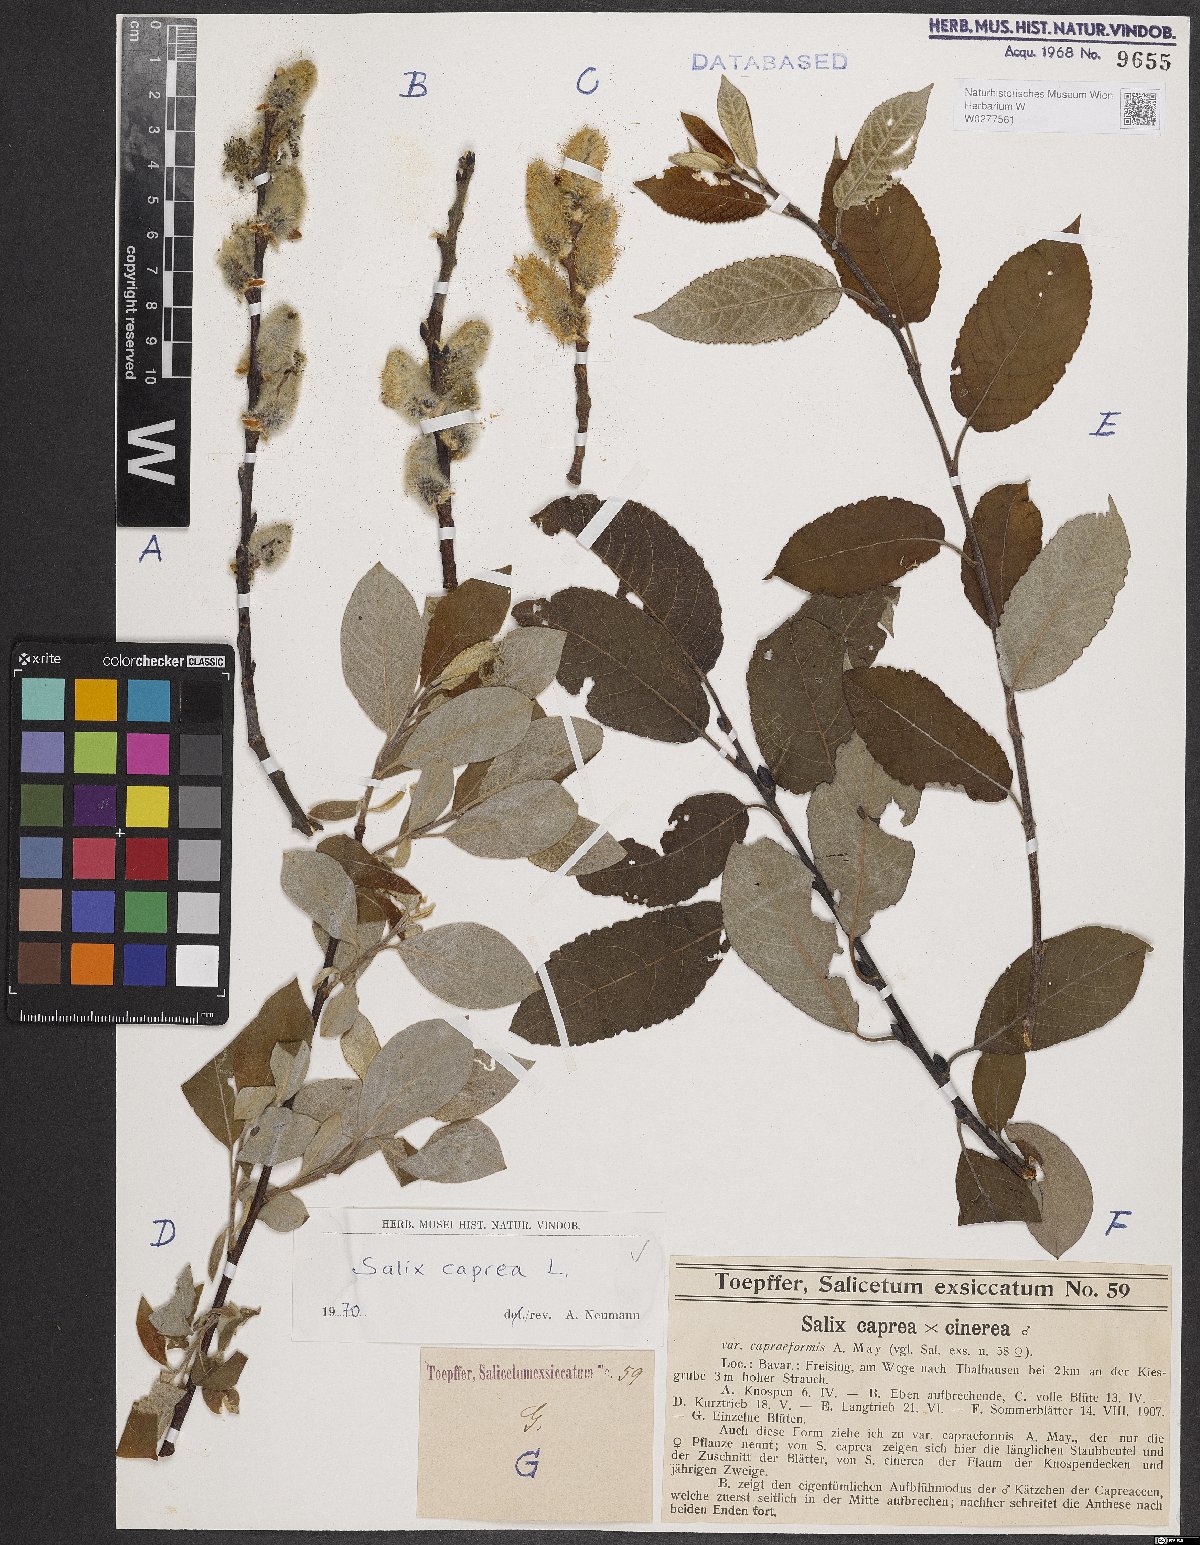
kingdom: Plantae
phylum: Tracheophyta
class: Magnoliopsida
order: Malpighiales
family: Salicaceae
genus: Salix
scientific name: Salix caprea
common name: Goat willow
